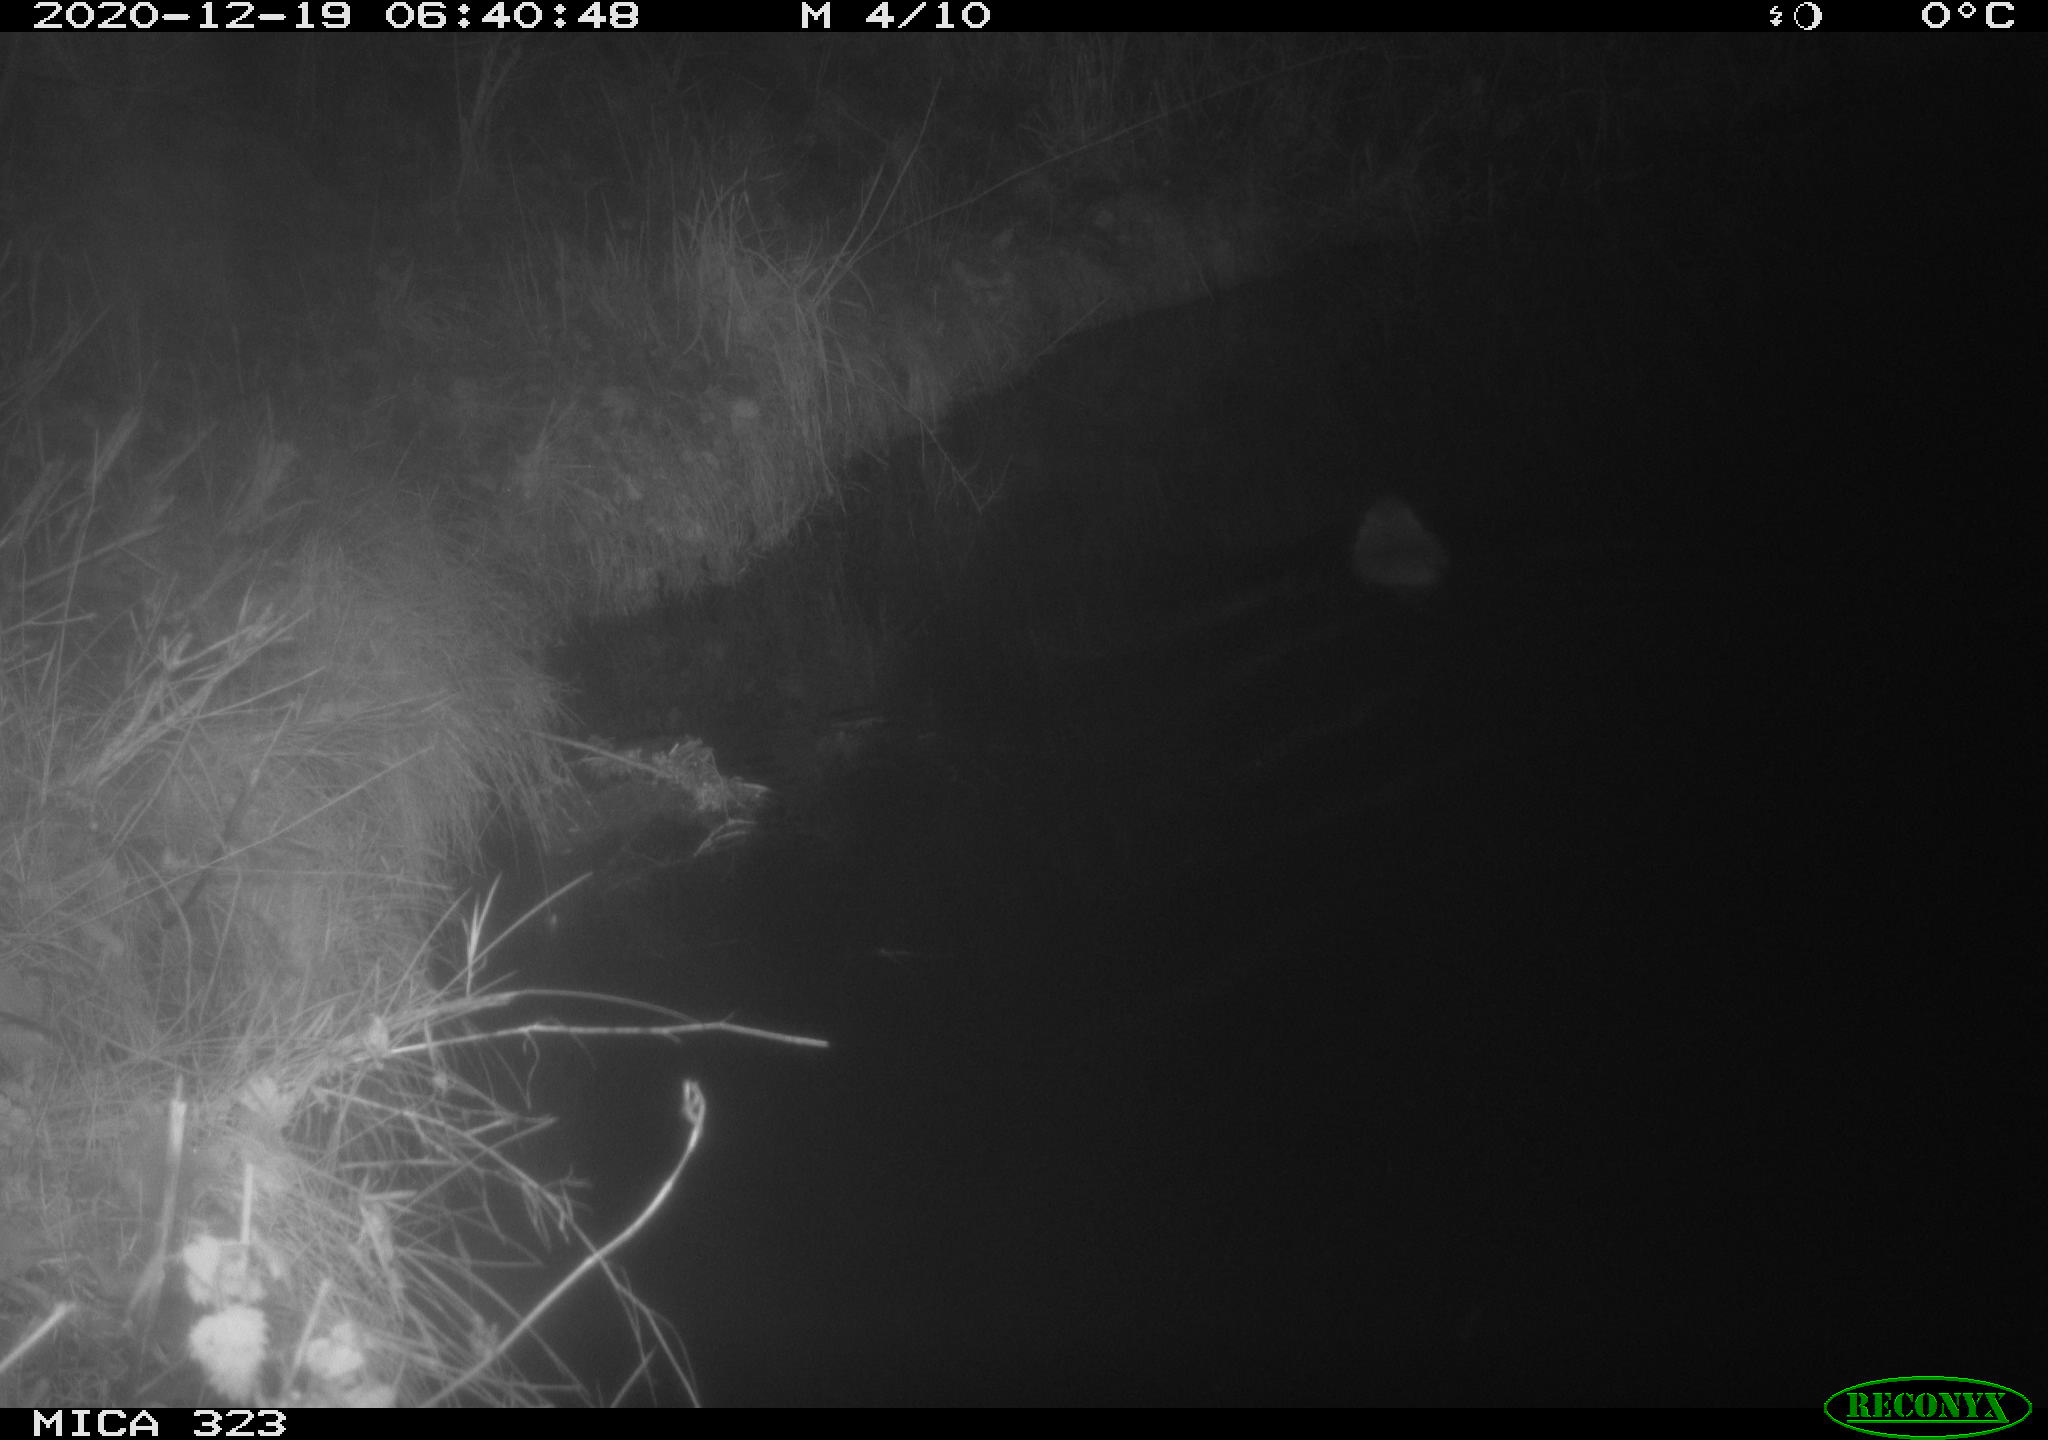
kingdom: Animalia
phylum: Chordata
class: Mammalia
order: Rodentia
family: Myocastoridae
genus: Myocastor
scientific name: Myocastor coypus
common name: Coypu
